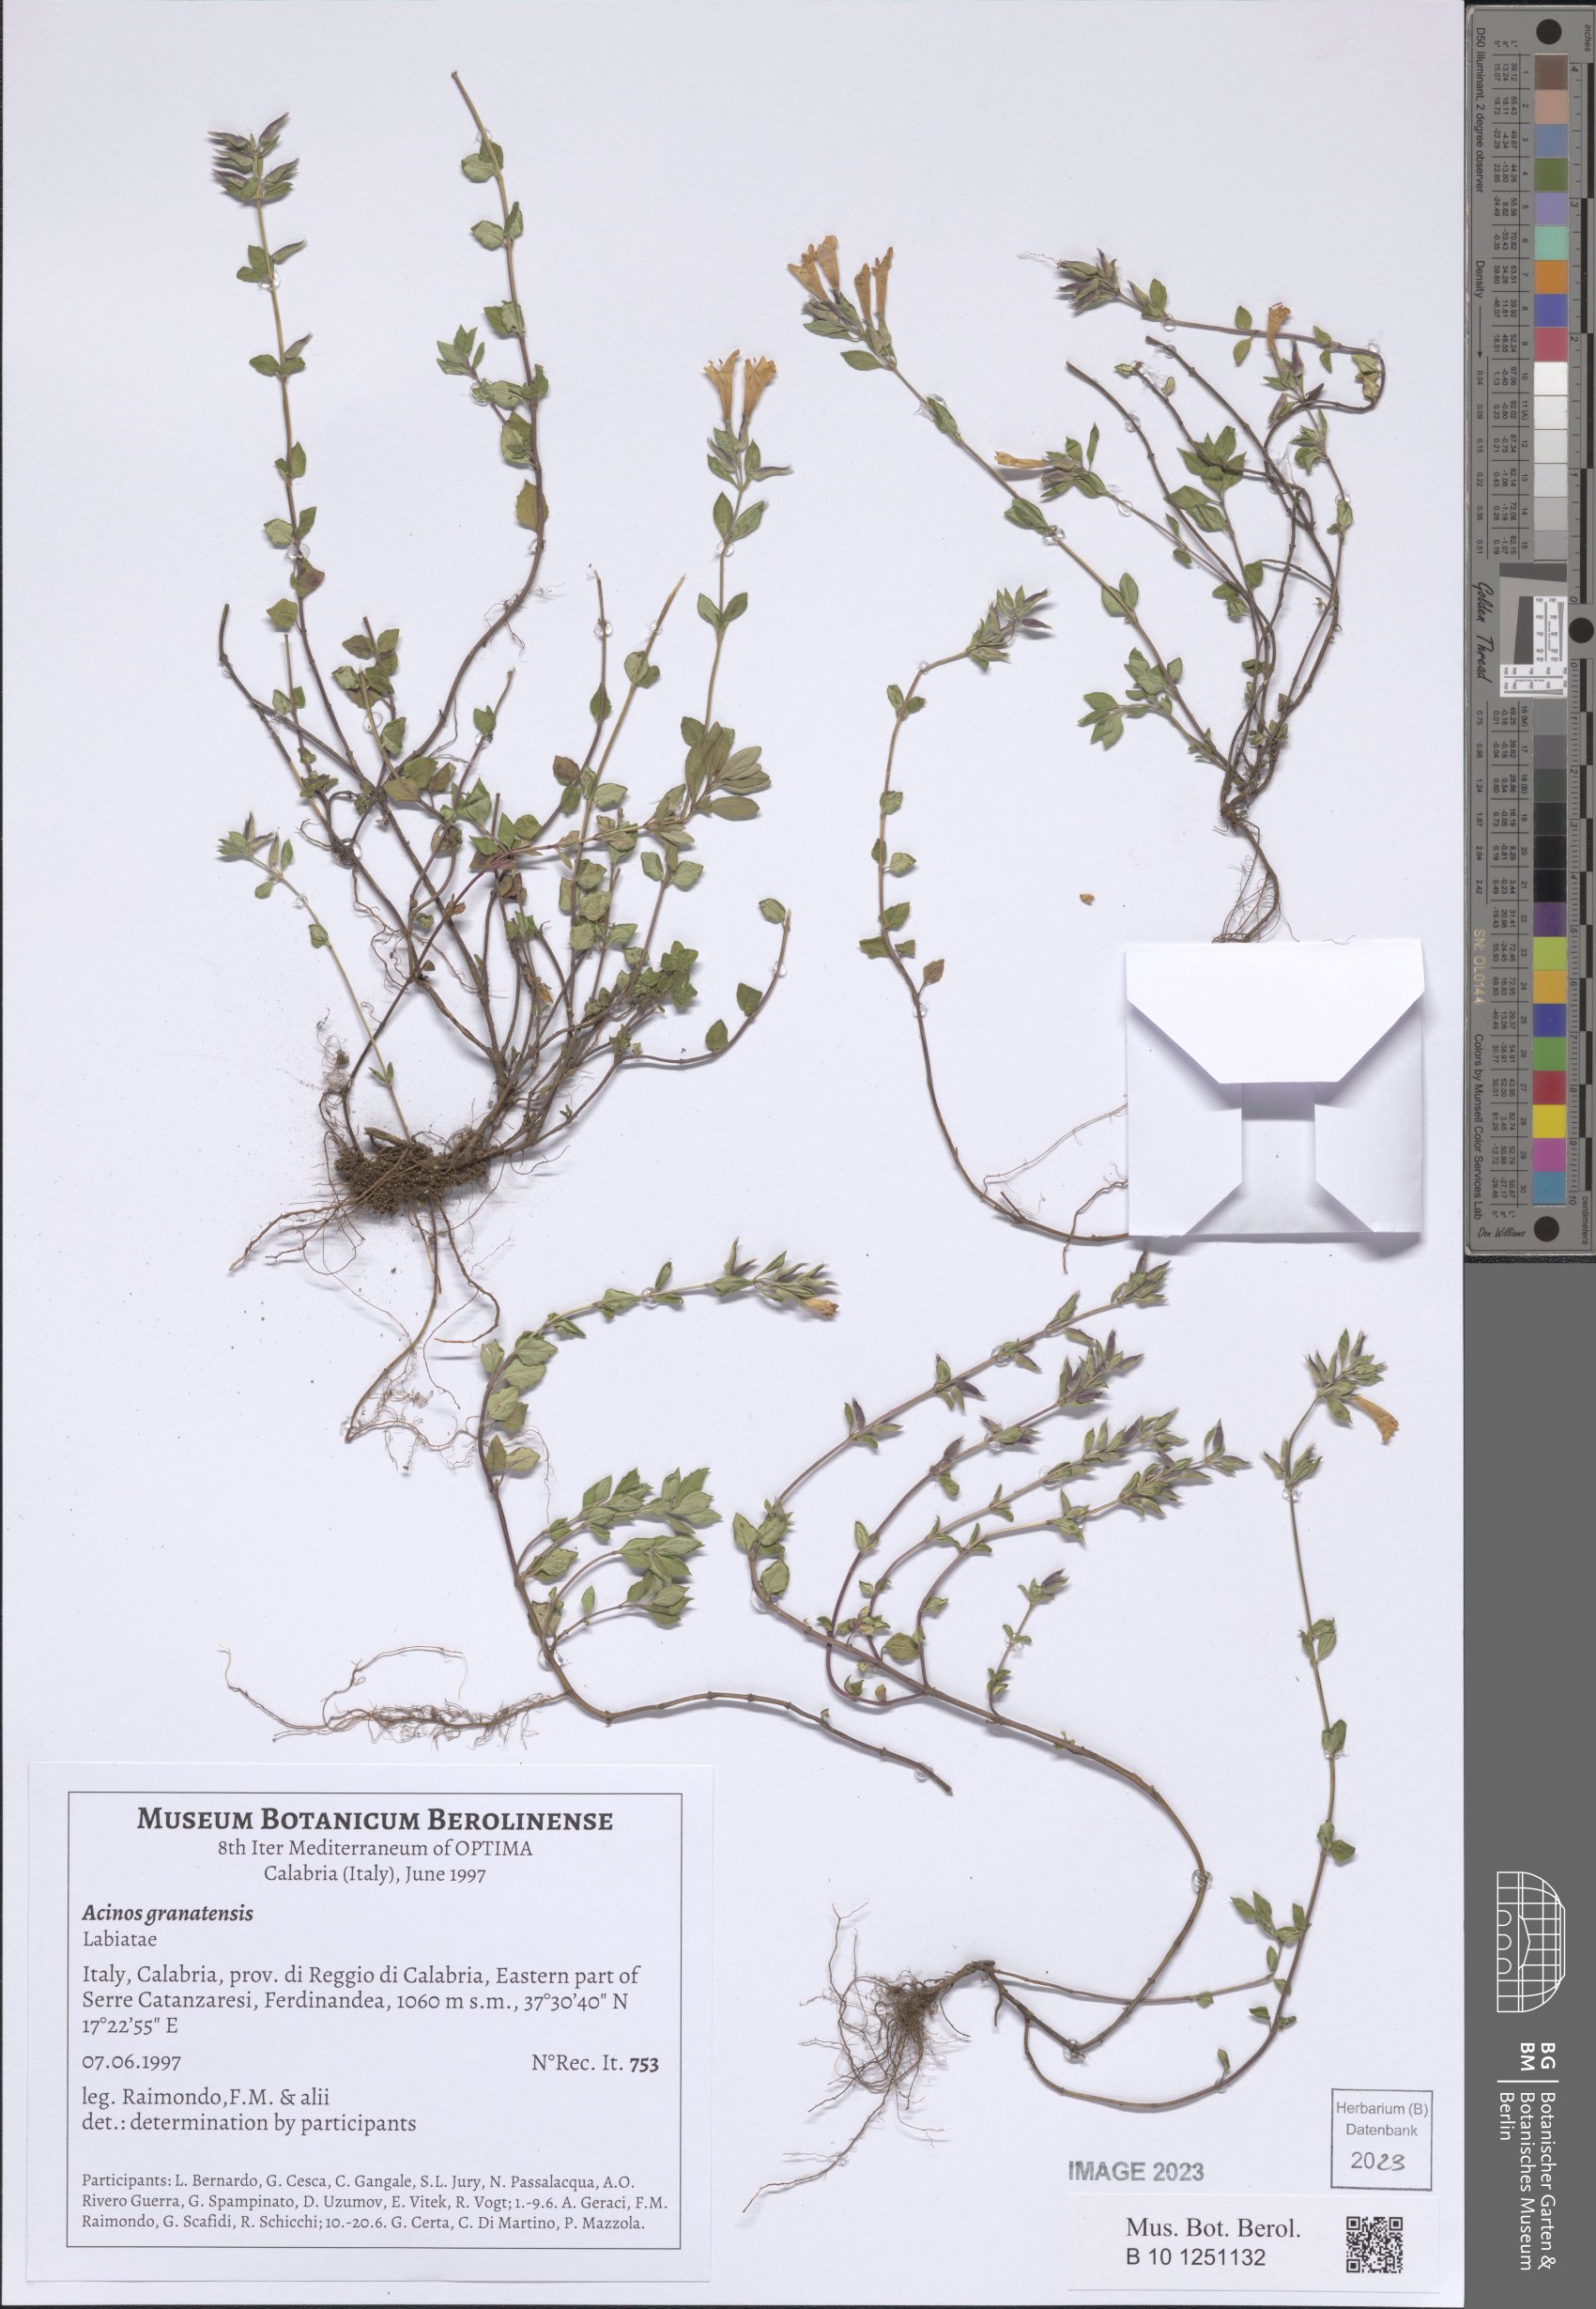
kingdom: Plantae
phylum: Tracheophyta
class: Magnoliopsida
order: Lamiales
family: Lamiaceae
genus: Clinopodium
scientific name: Clinopodium alpinum
